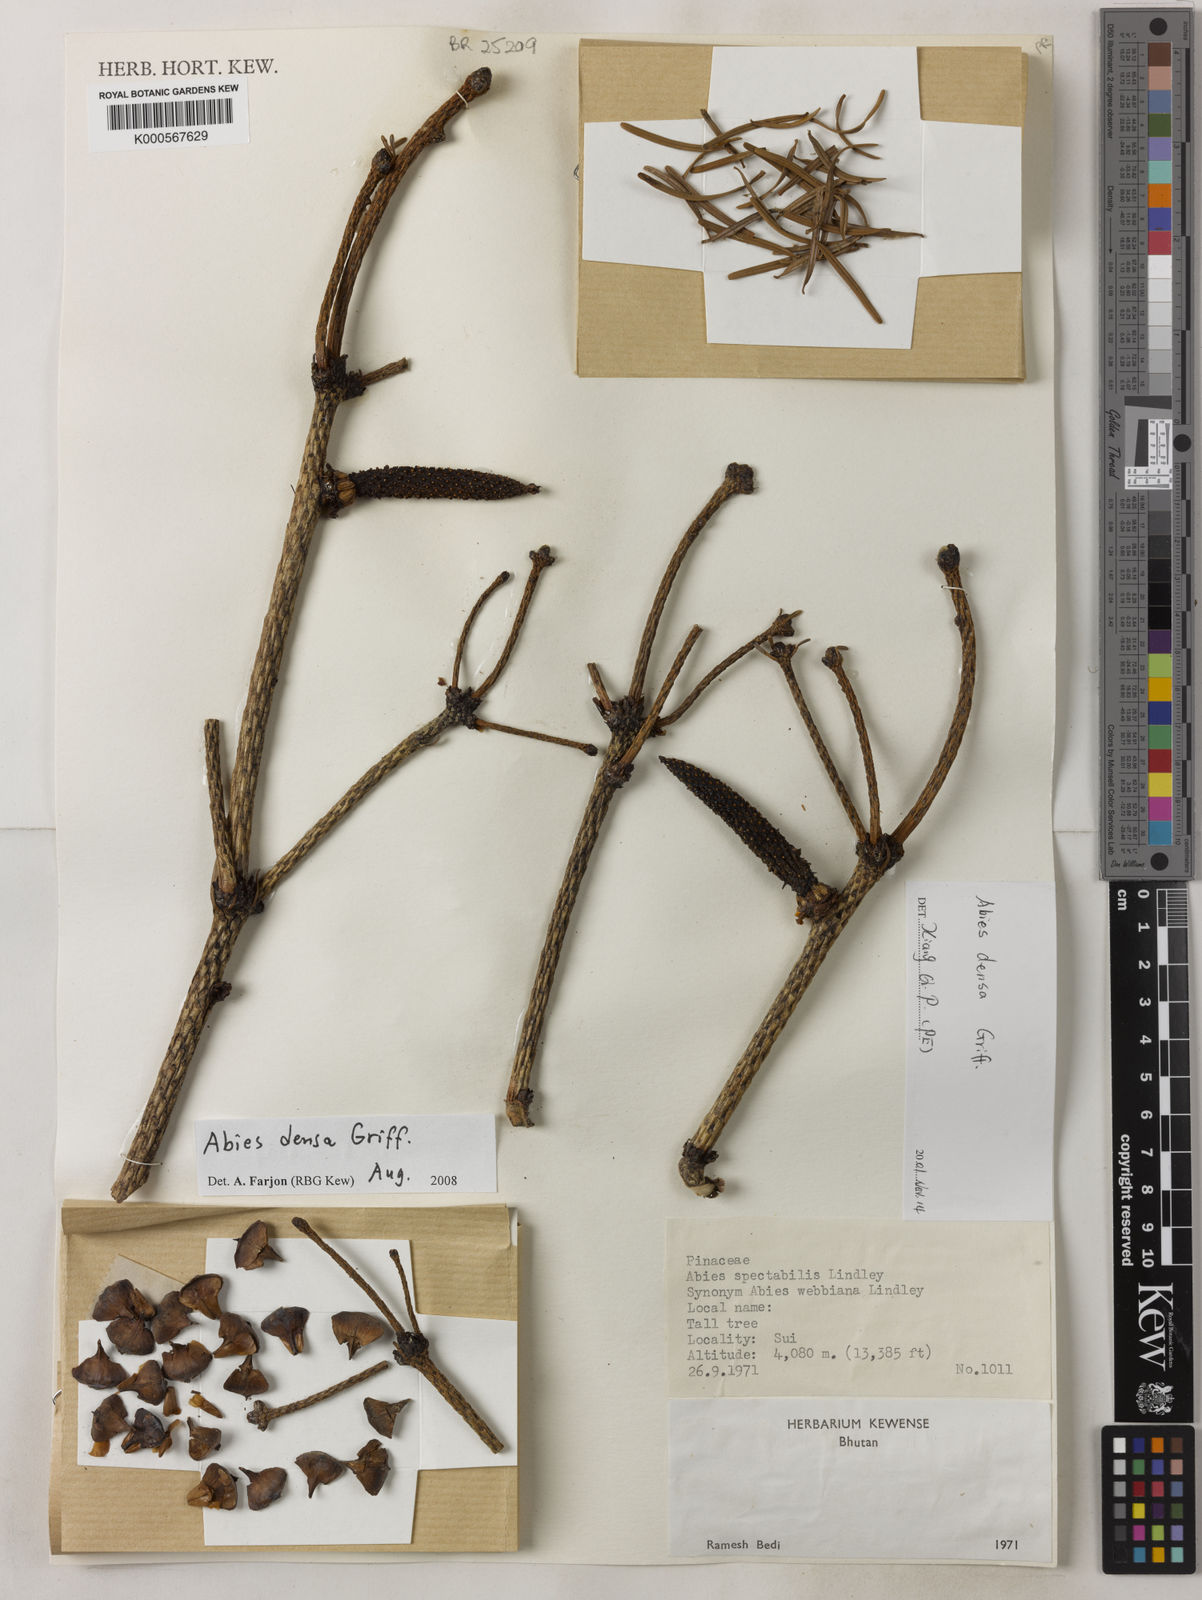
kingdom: Plantae
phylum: Tracheophyta
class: Pinopsida
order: Pinales
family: Pinaceae
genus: Abies
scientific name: Abies densa
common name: Sikkim fir
